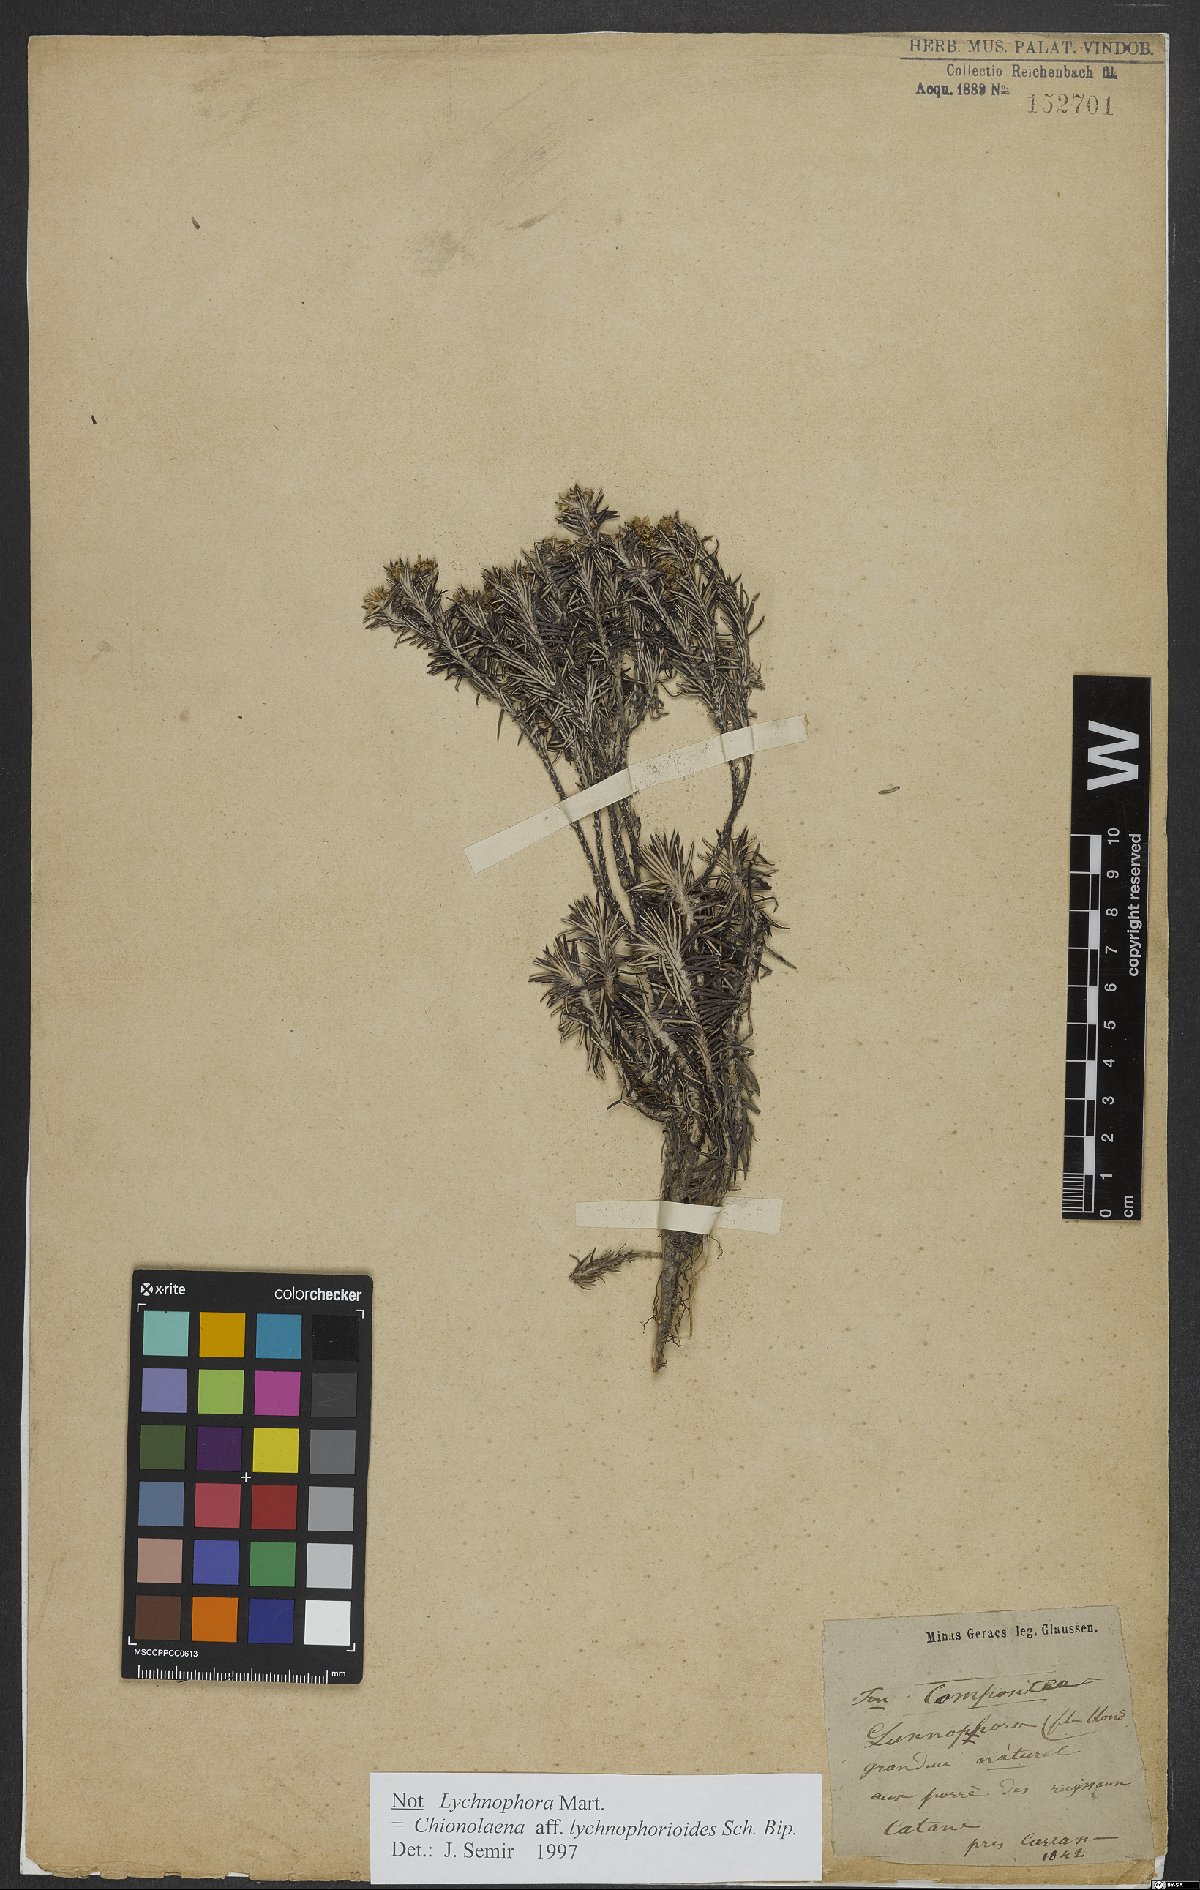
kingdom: Plantae
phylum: Tracheophyta
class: Magnoliopsida
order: Asterales
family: Asteraceae
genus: Chionolaena
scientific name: Chionolaena lychnophorioides
